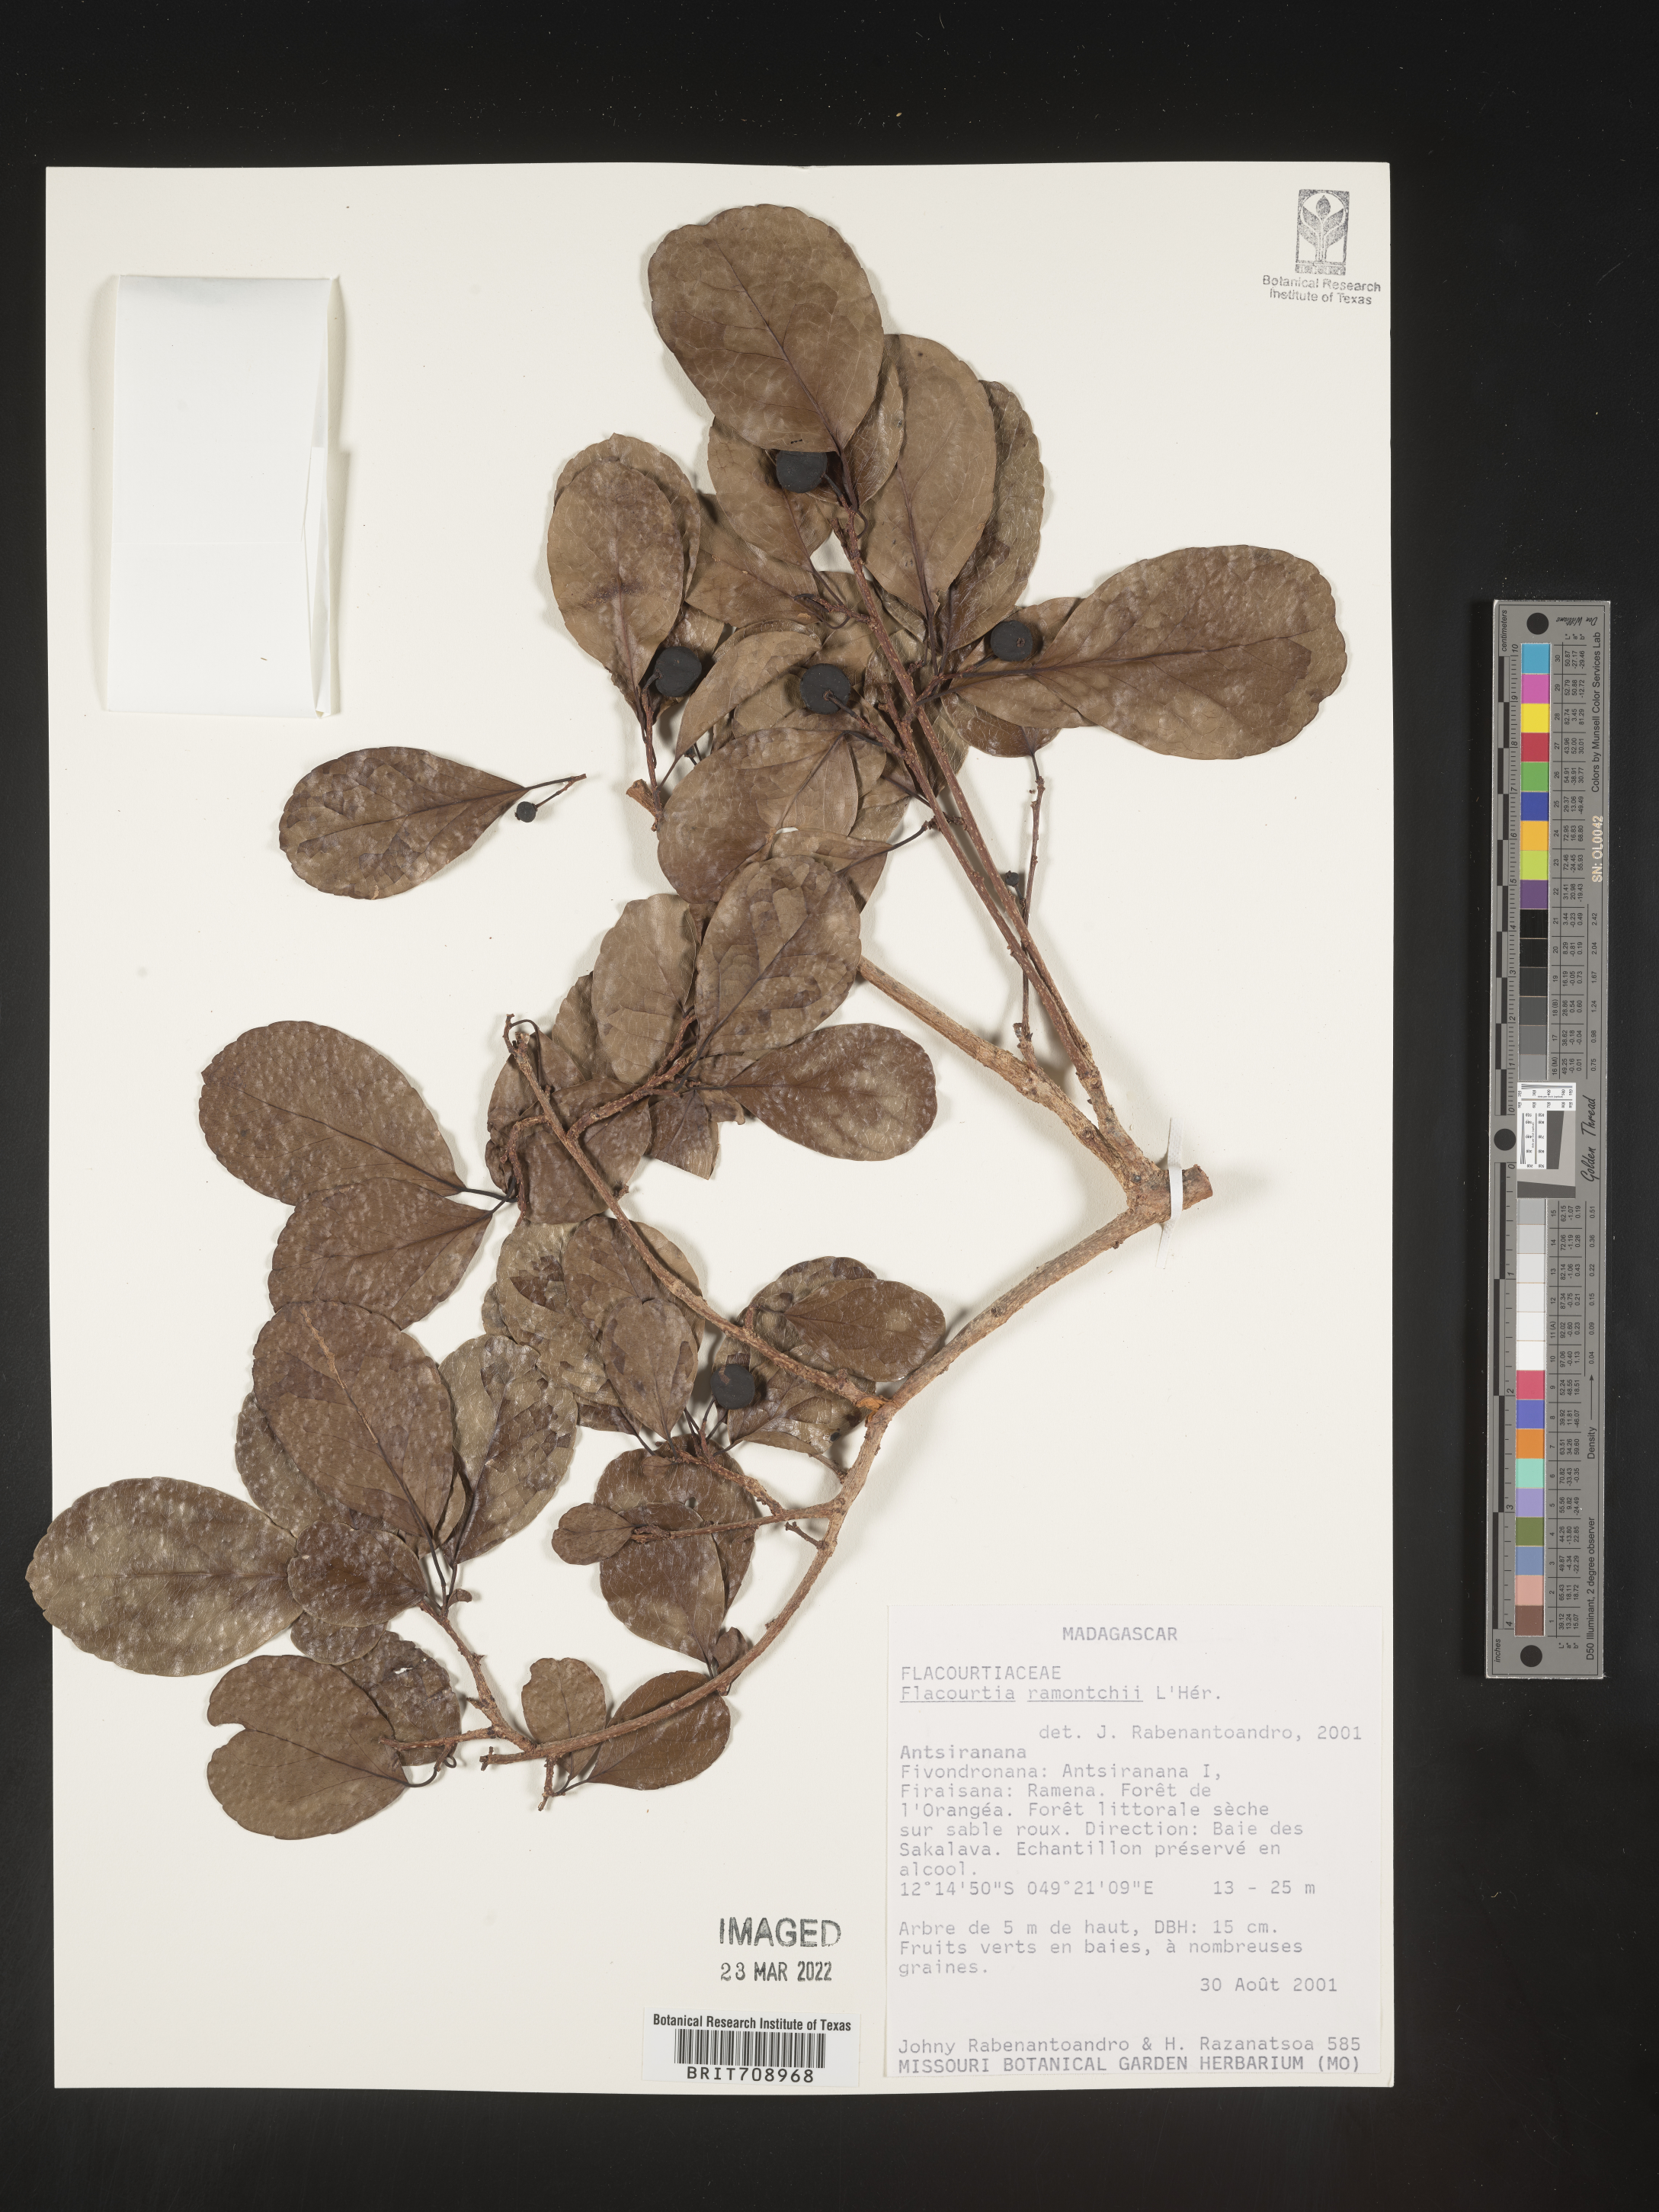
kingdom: Plantae
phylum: Tracheophyta
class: Magnoliopsida
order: Malpighiales
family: Salicaceae
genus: Flacourtia
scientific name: Flacourtia
